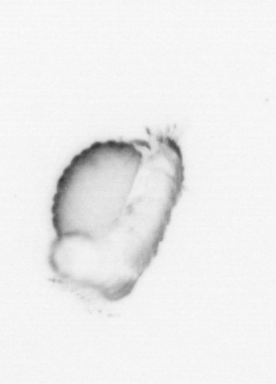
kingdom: Animalia
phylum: Annelida
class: Polychaeta
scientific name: Polychaeta
